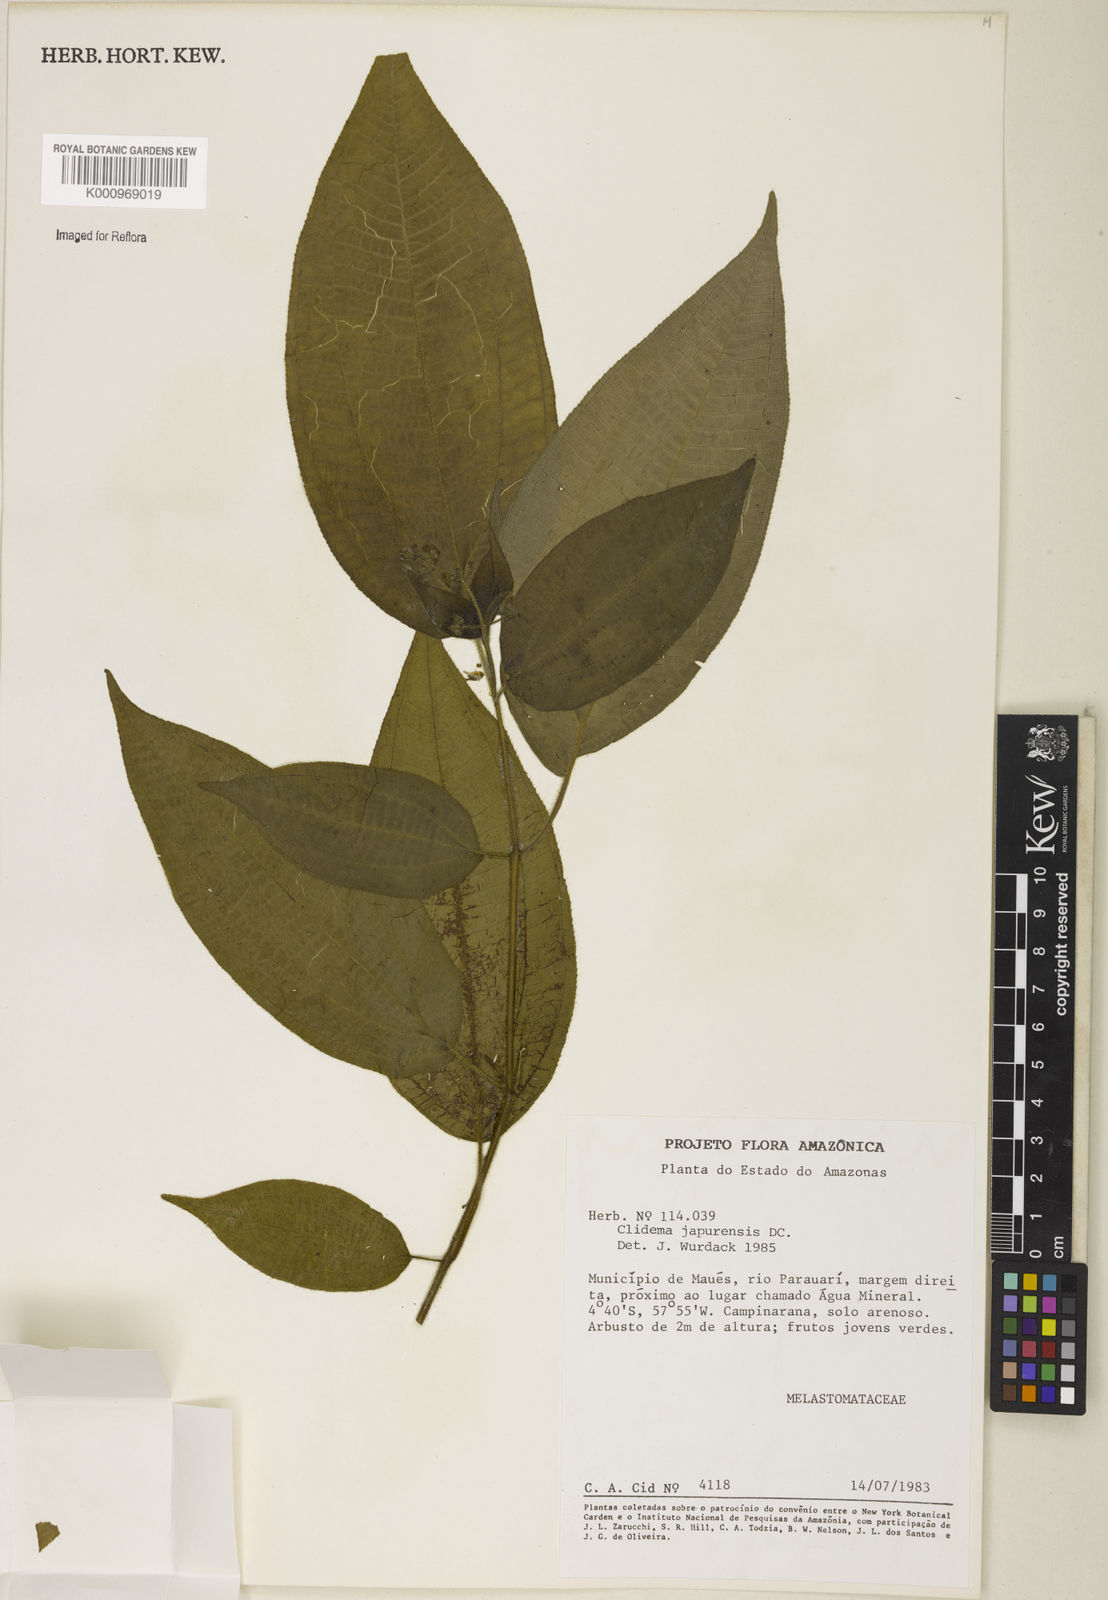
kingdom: Plantae
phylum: Tracheophyta
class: Magnoliopsida
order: Myrtales
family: Melastomataceae
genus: Miconia
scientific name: Miconia heteroclita
